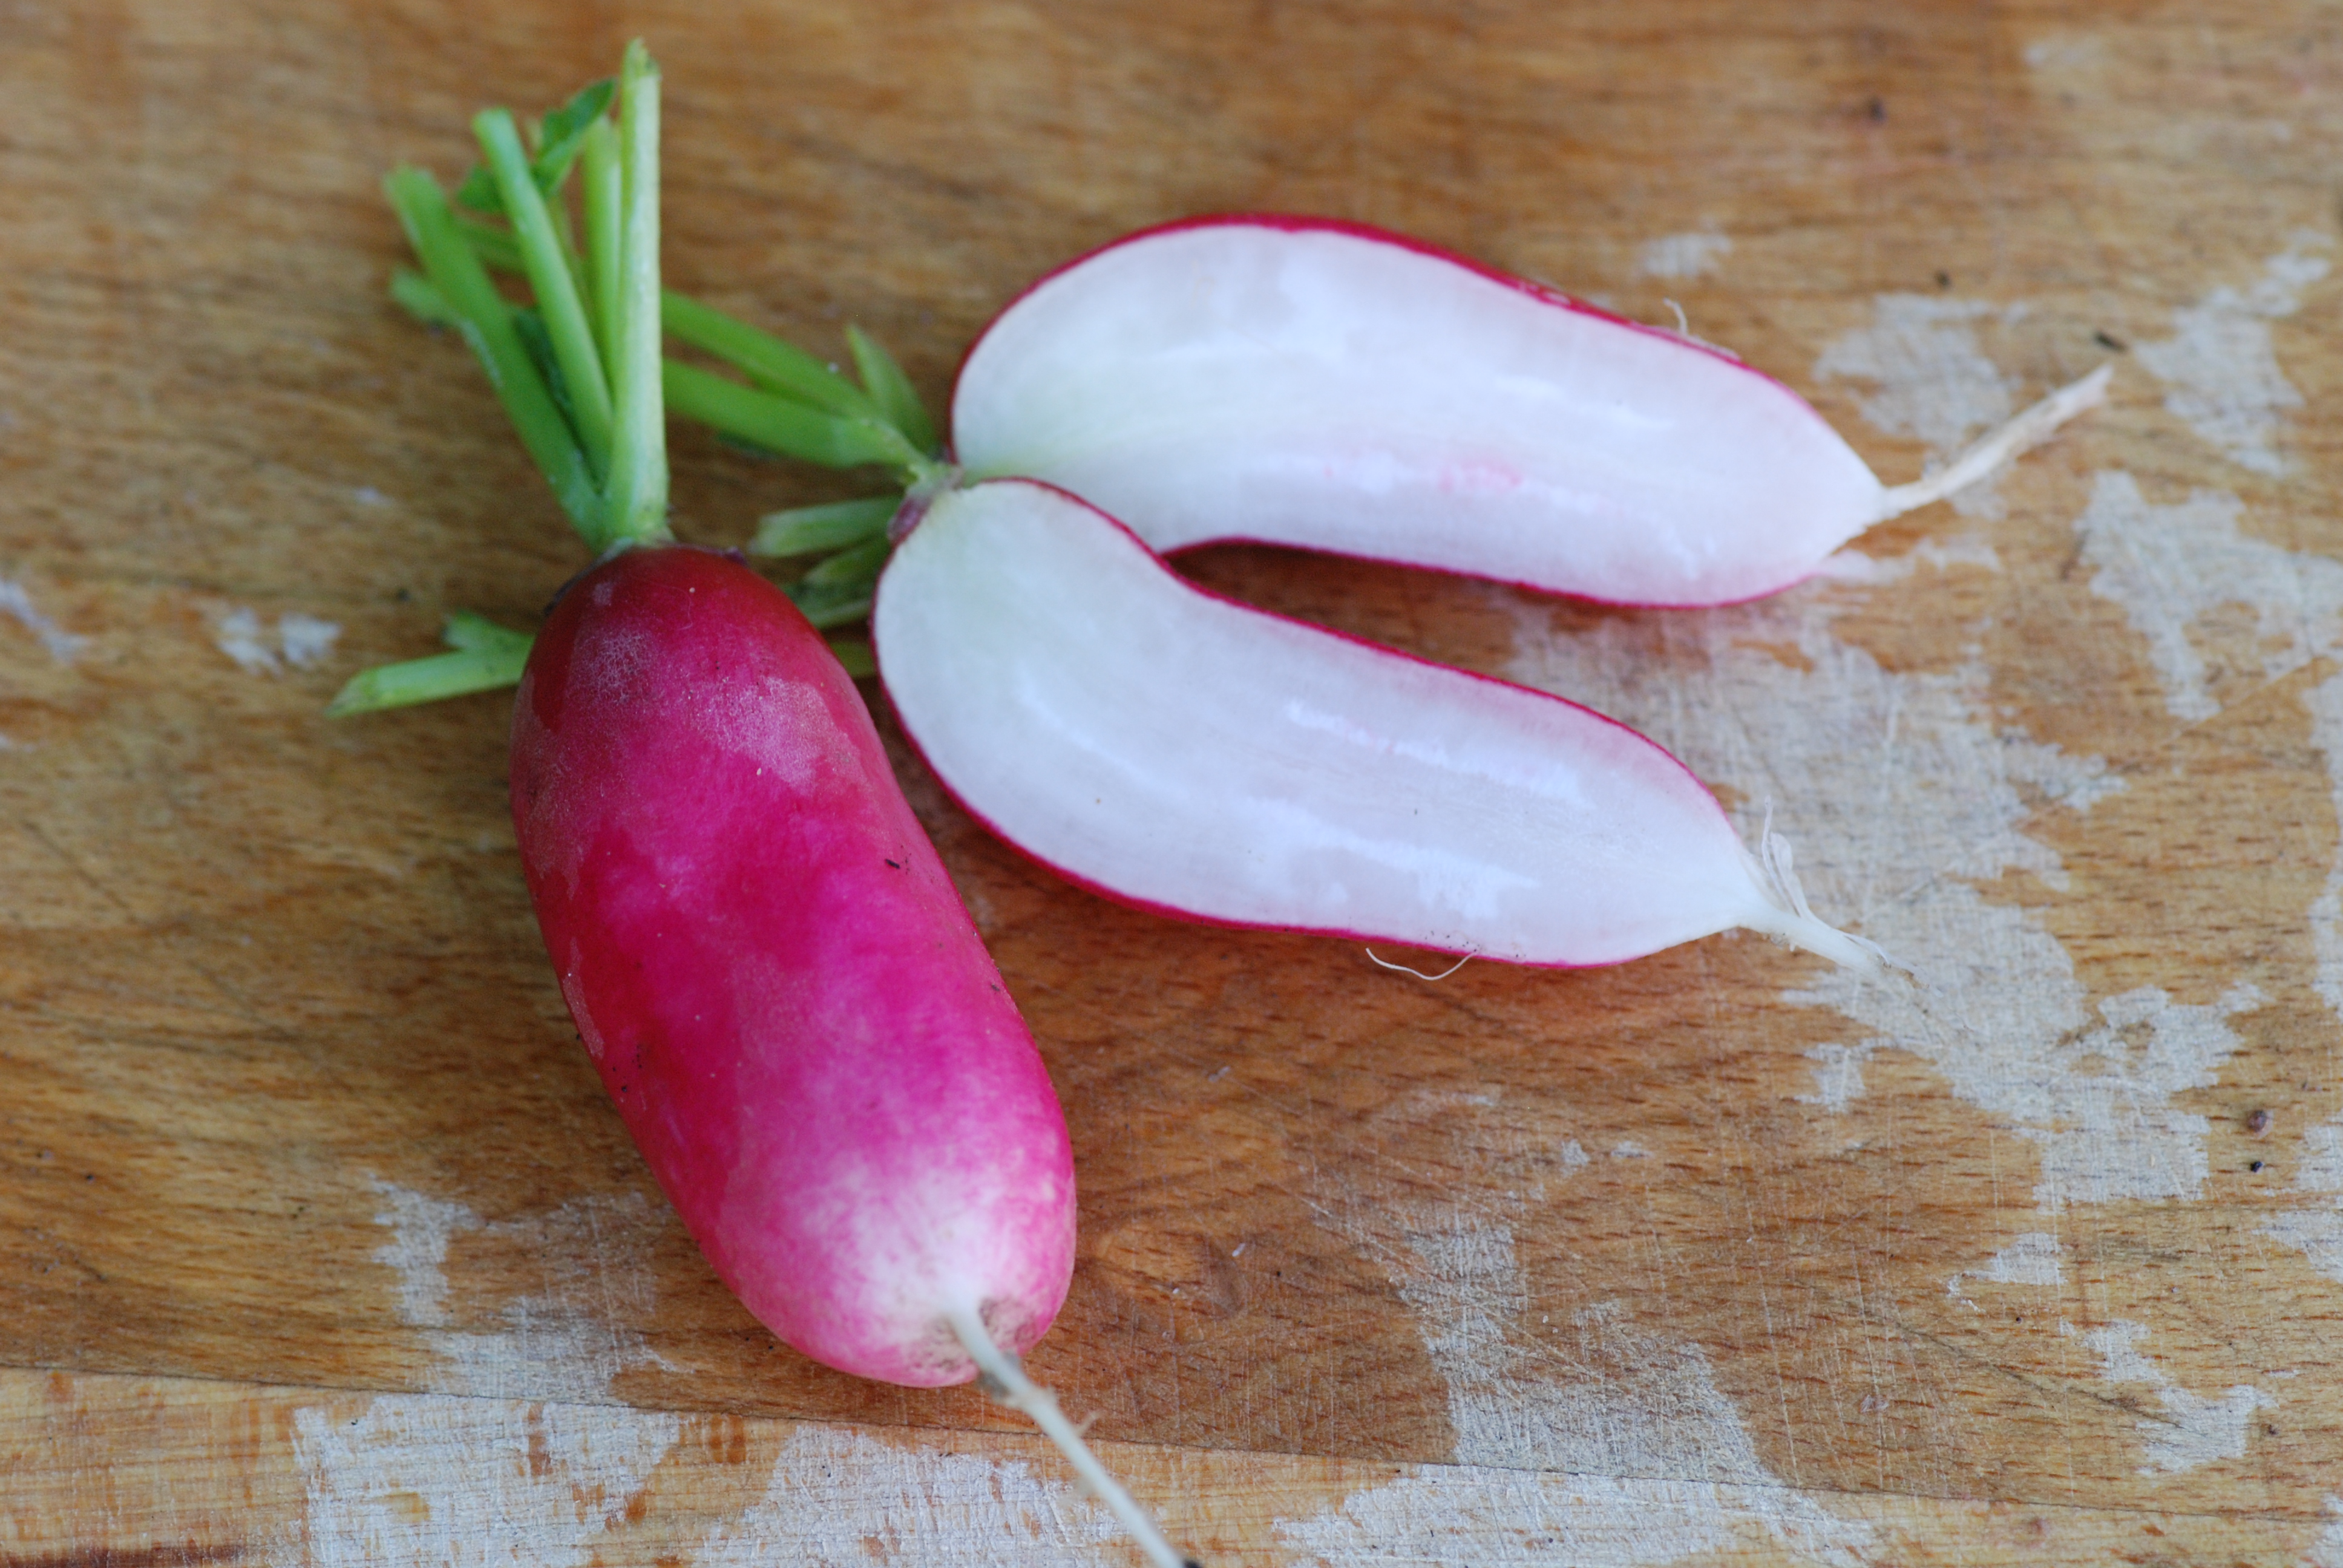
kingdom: Plantae
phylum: Tracheophyta
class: Magnoliopsida
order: Brassicales
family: Brassicaceae
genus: Raphanus
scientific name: Raphanus sativus
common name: Cultivated radish
